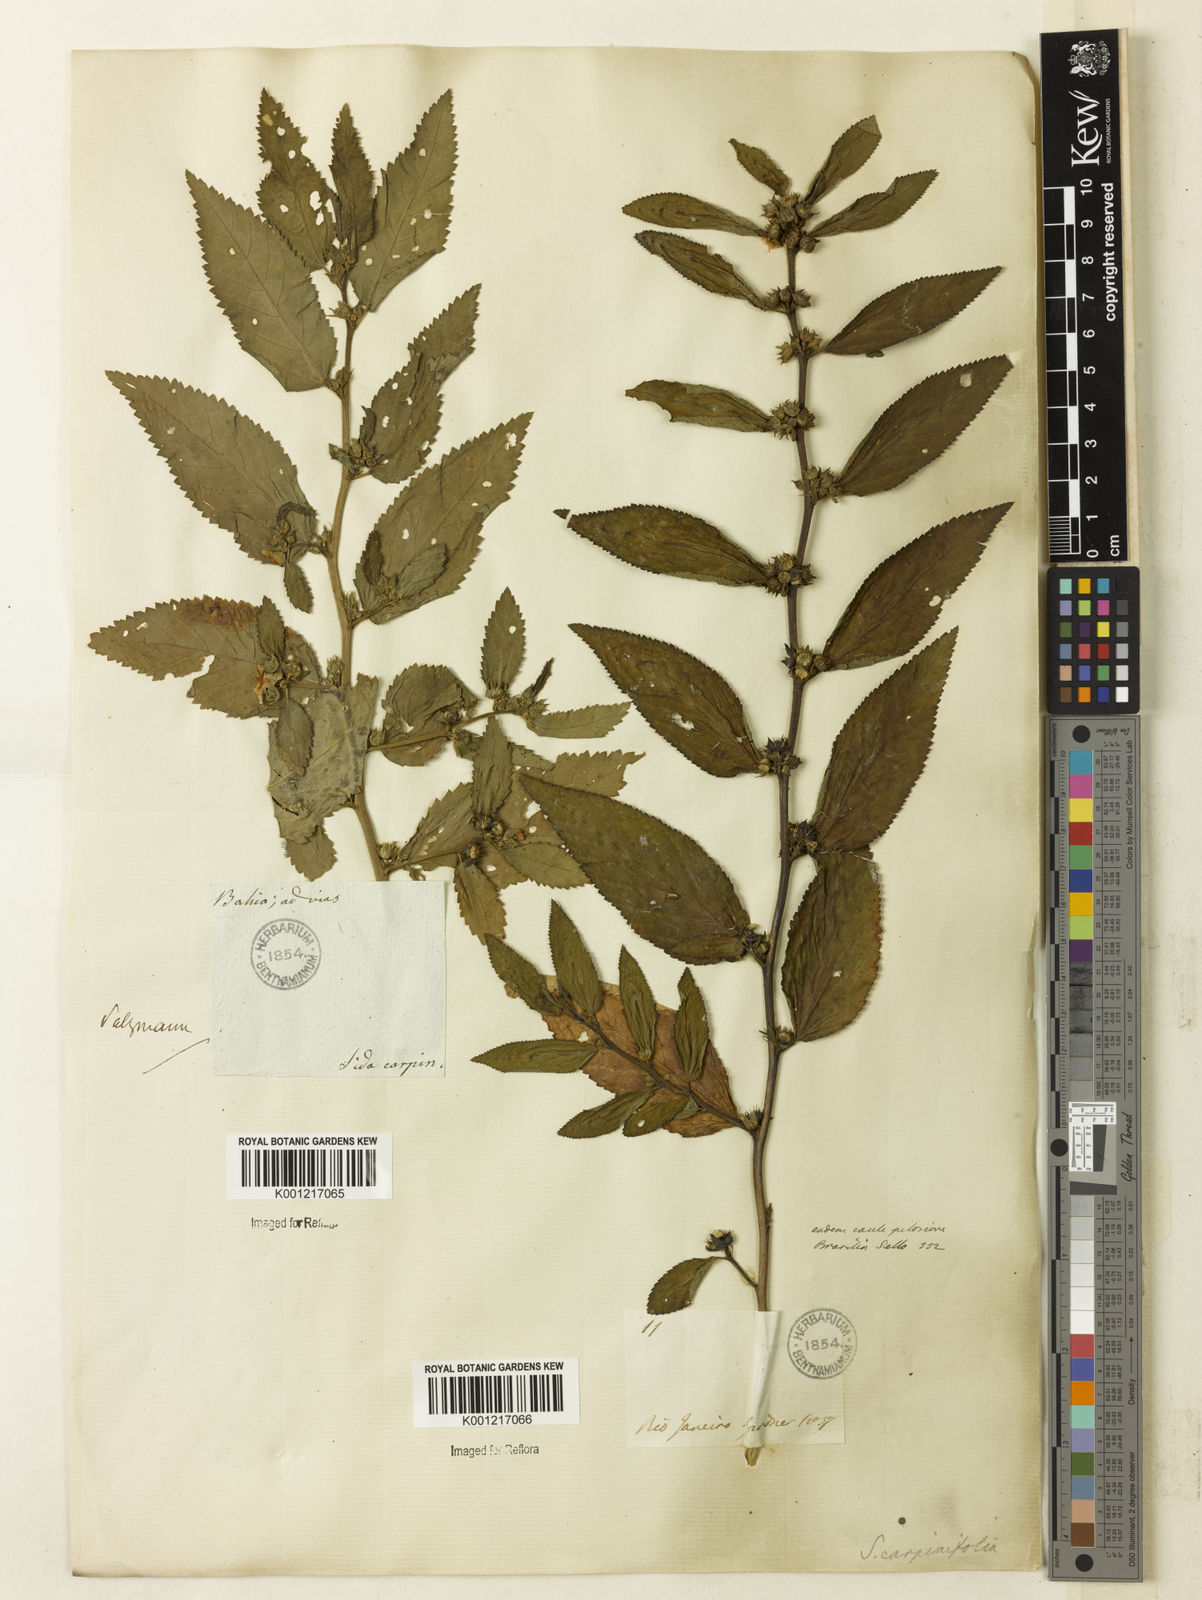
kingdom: Plantae
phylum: Tracheophyta
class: Magnoliopsida
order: Malvales
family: Malvaceae
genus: Sida
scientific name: Sida
